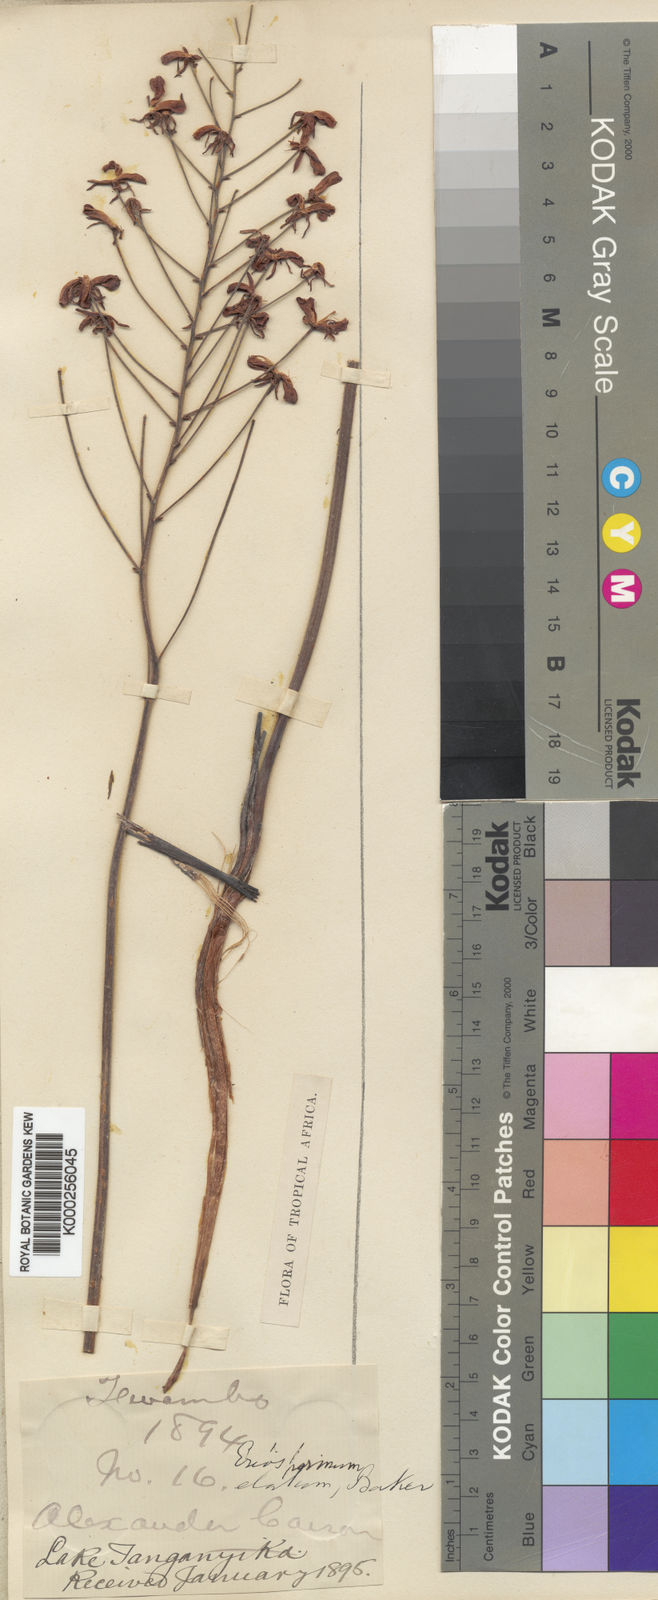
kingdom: Plantae
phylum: Tracheophyta
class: Liliopsida
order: Asparagales
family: Asparagaceae
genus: Eriospermum
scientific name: Eriospermum abyssinicum
